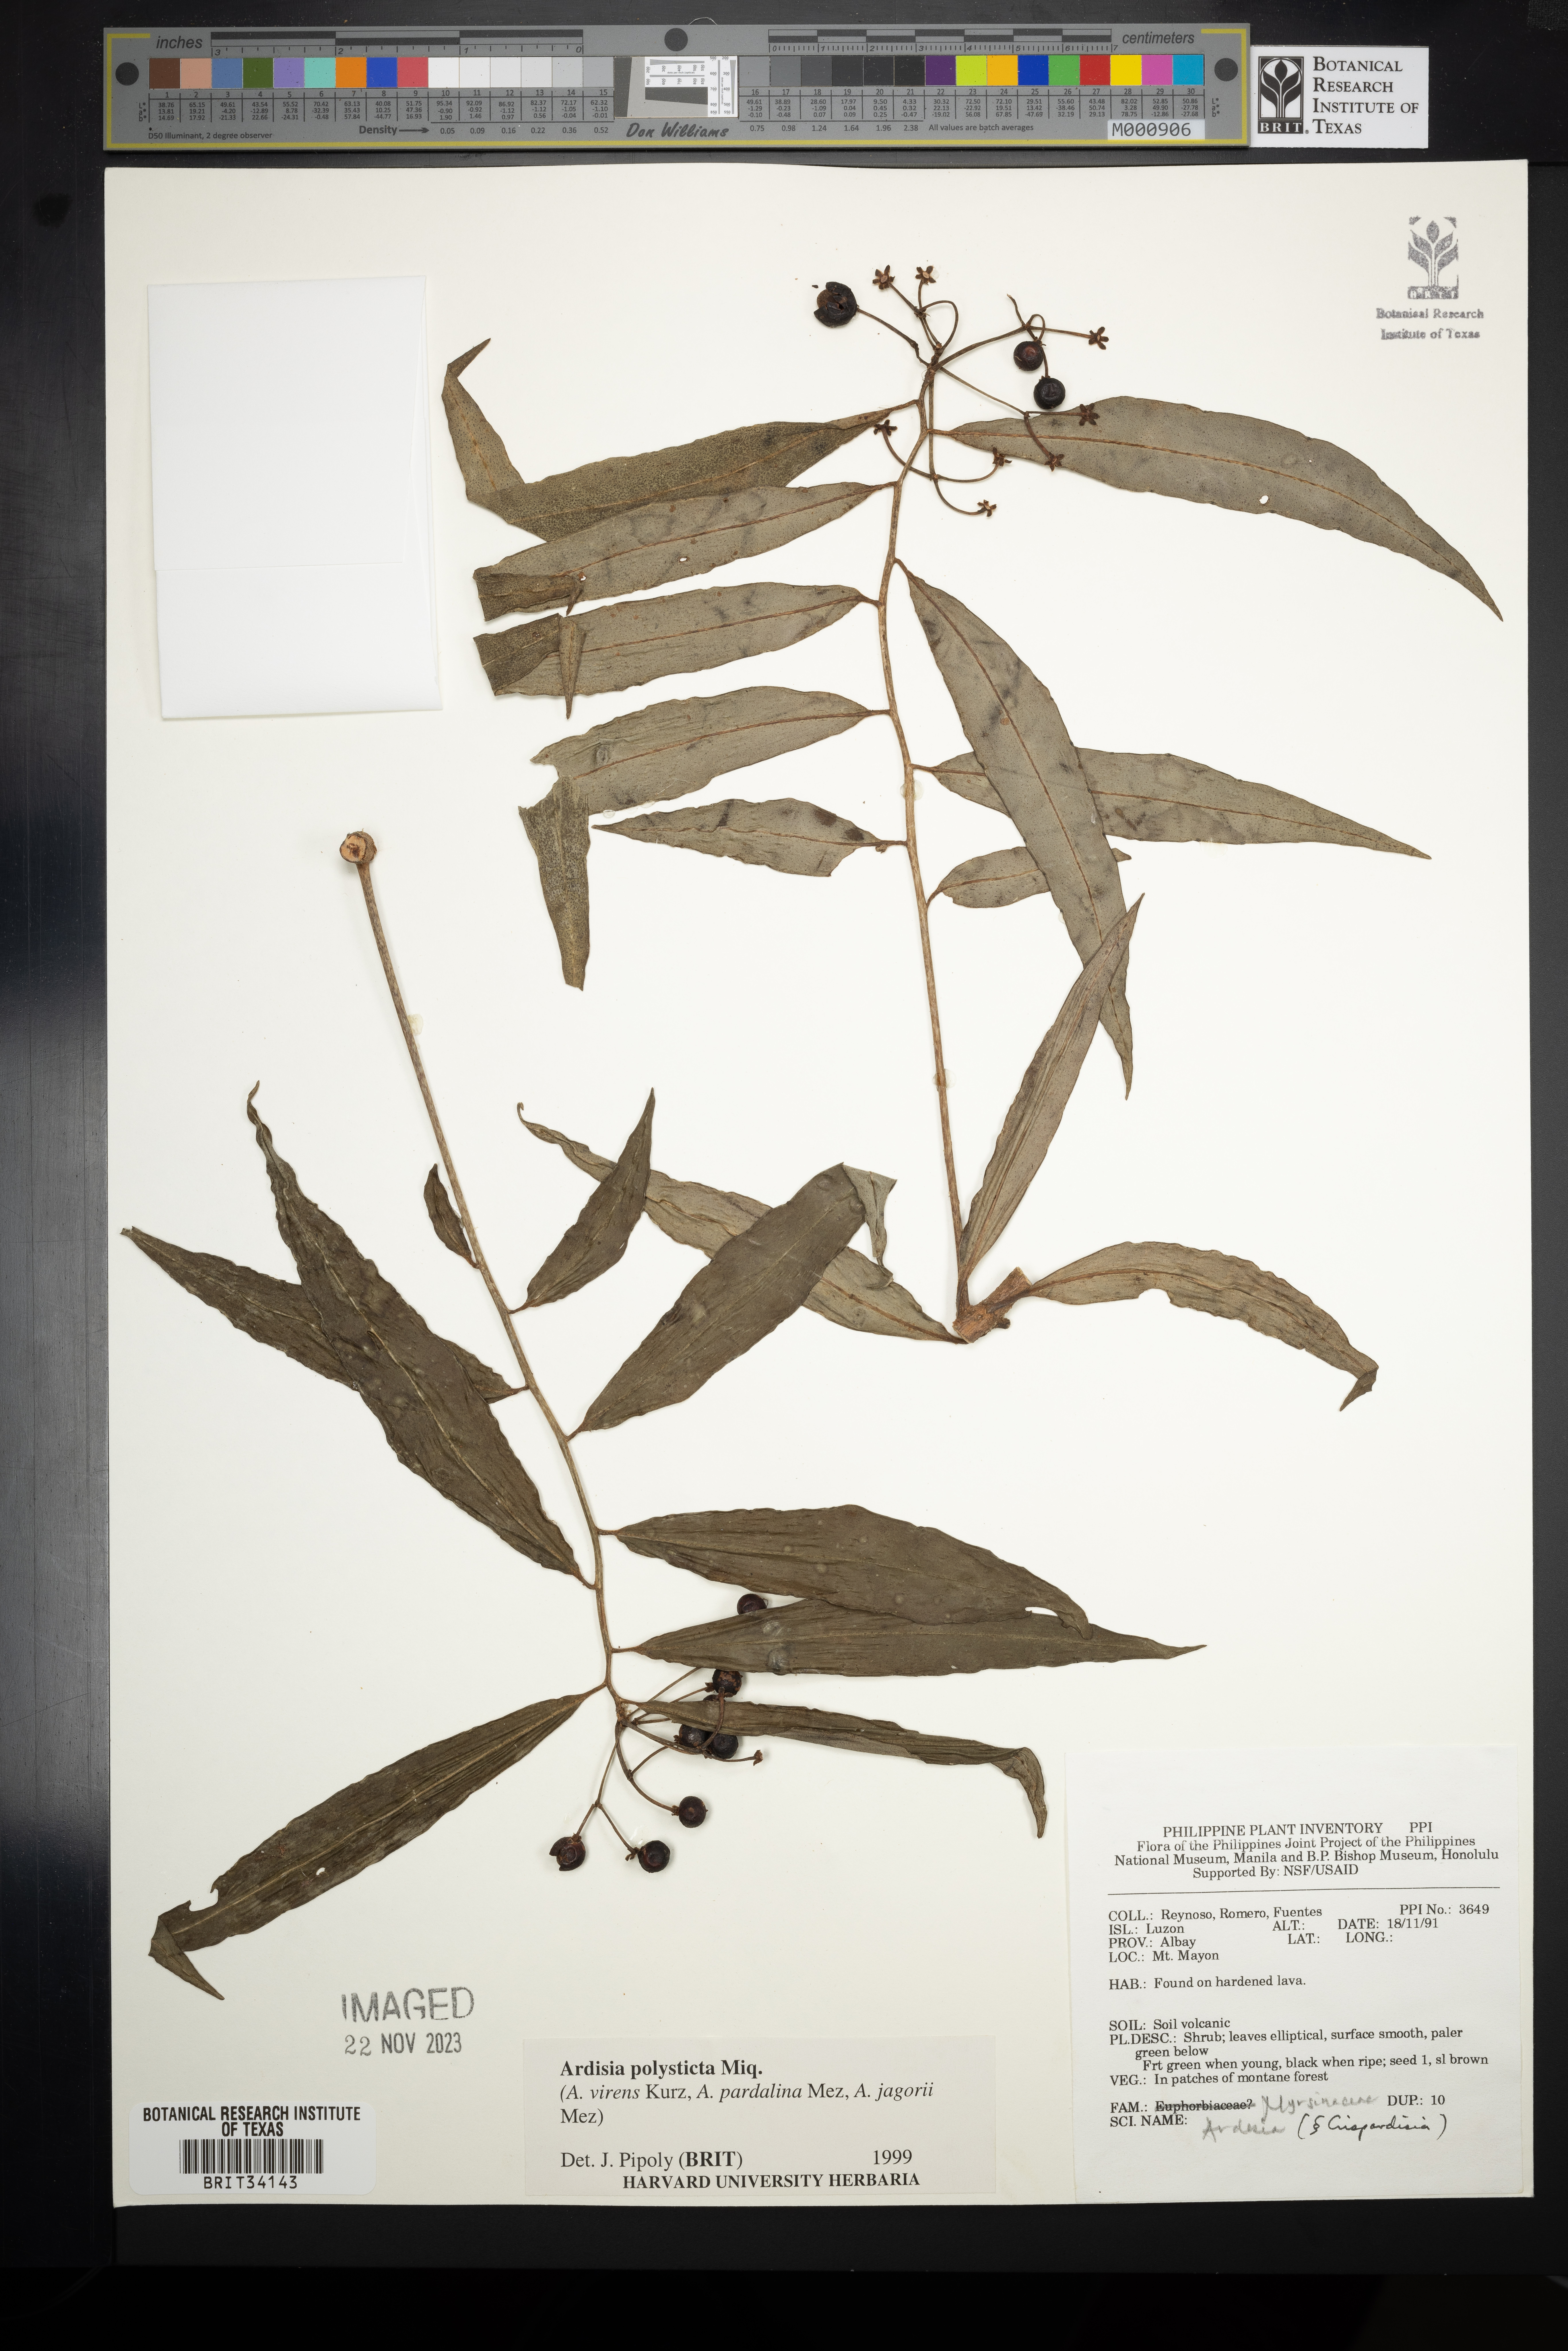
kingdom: Plantae
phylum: Tracheophyta
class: Magnoliopsida
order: Ericales
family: Primulaceae
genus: Ardisia
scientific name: Ardisia polysticta
